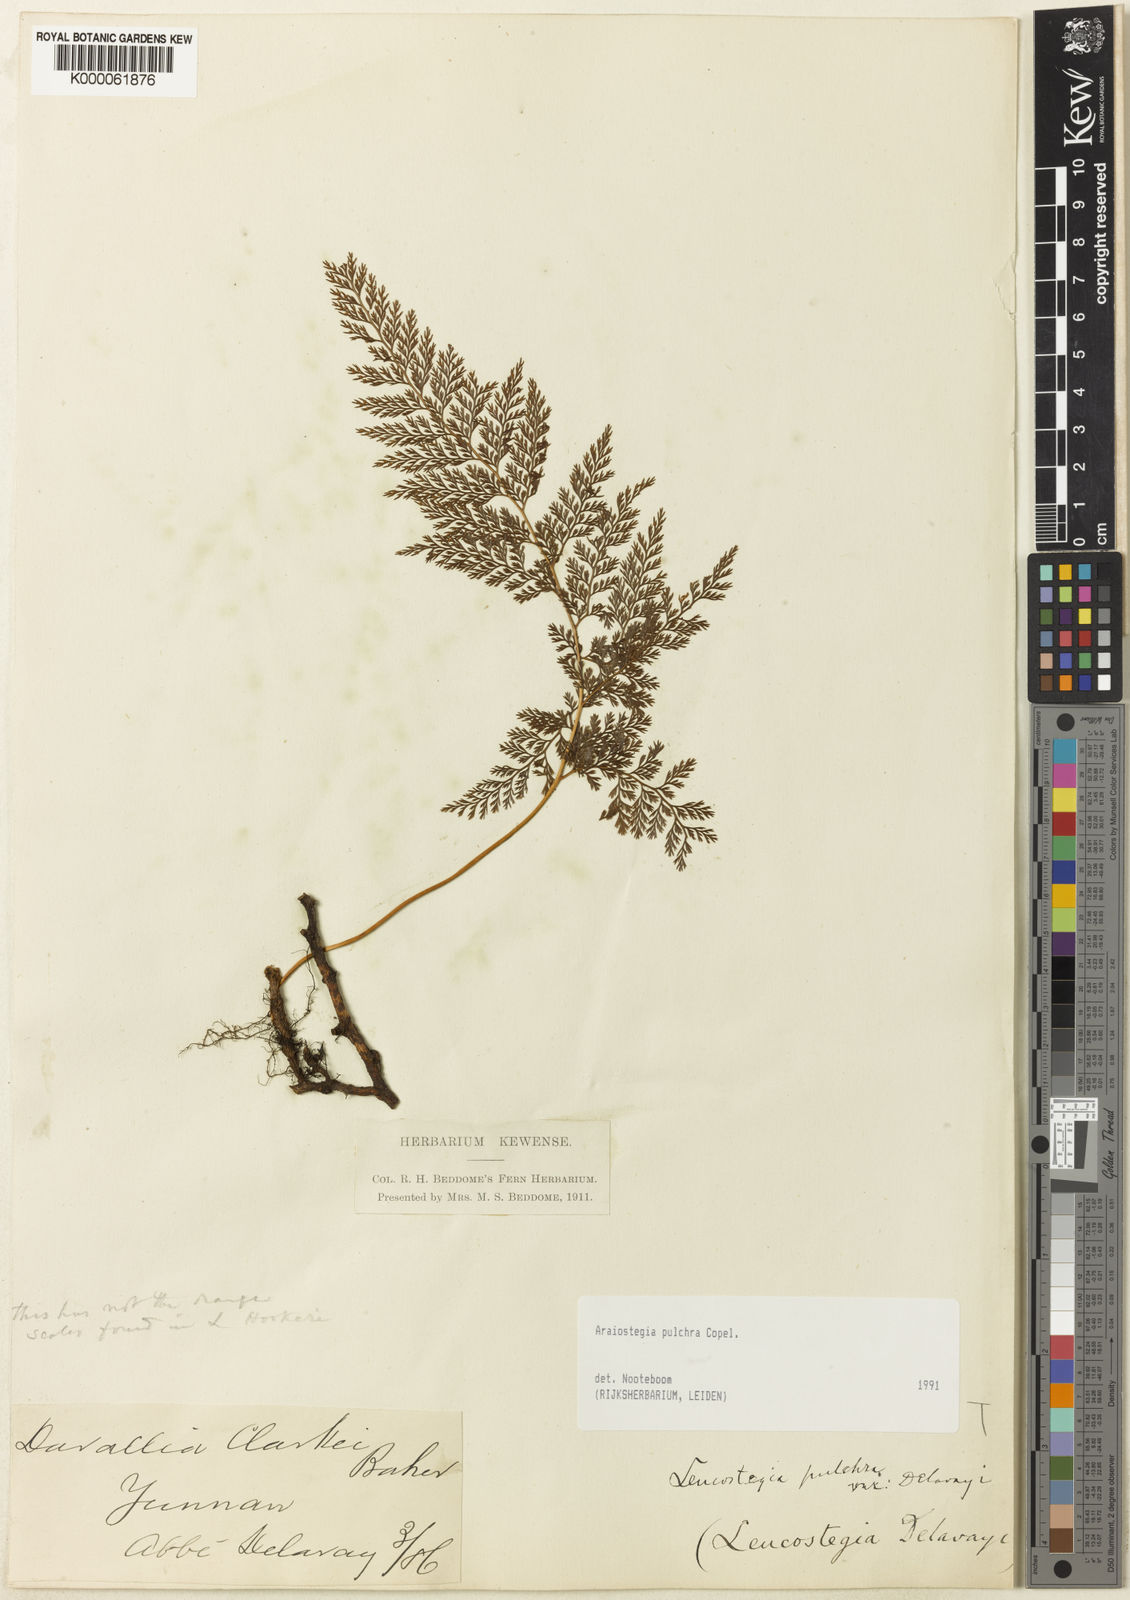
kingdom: Plantae
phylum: Tracheophyta
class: Polypodiopsida
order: Polypodiales
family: Davalliaceae
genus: Davallodes
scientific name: Davallodes pulchra
